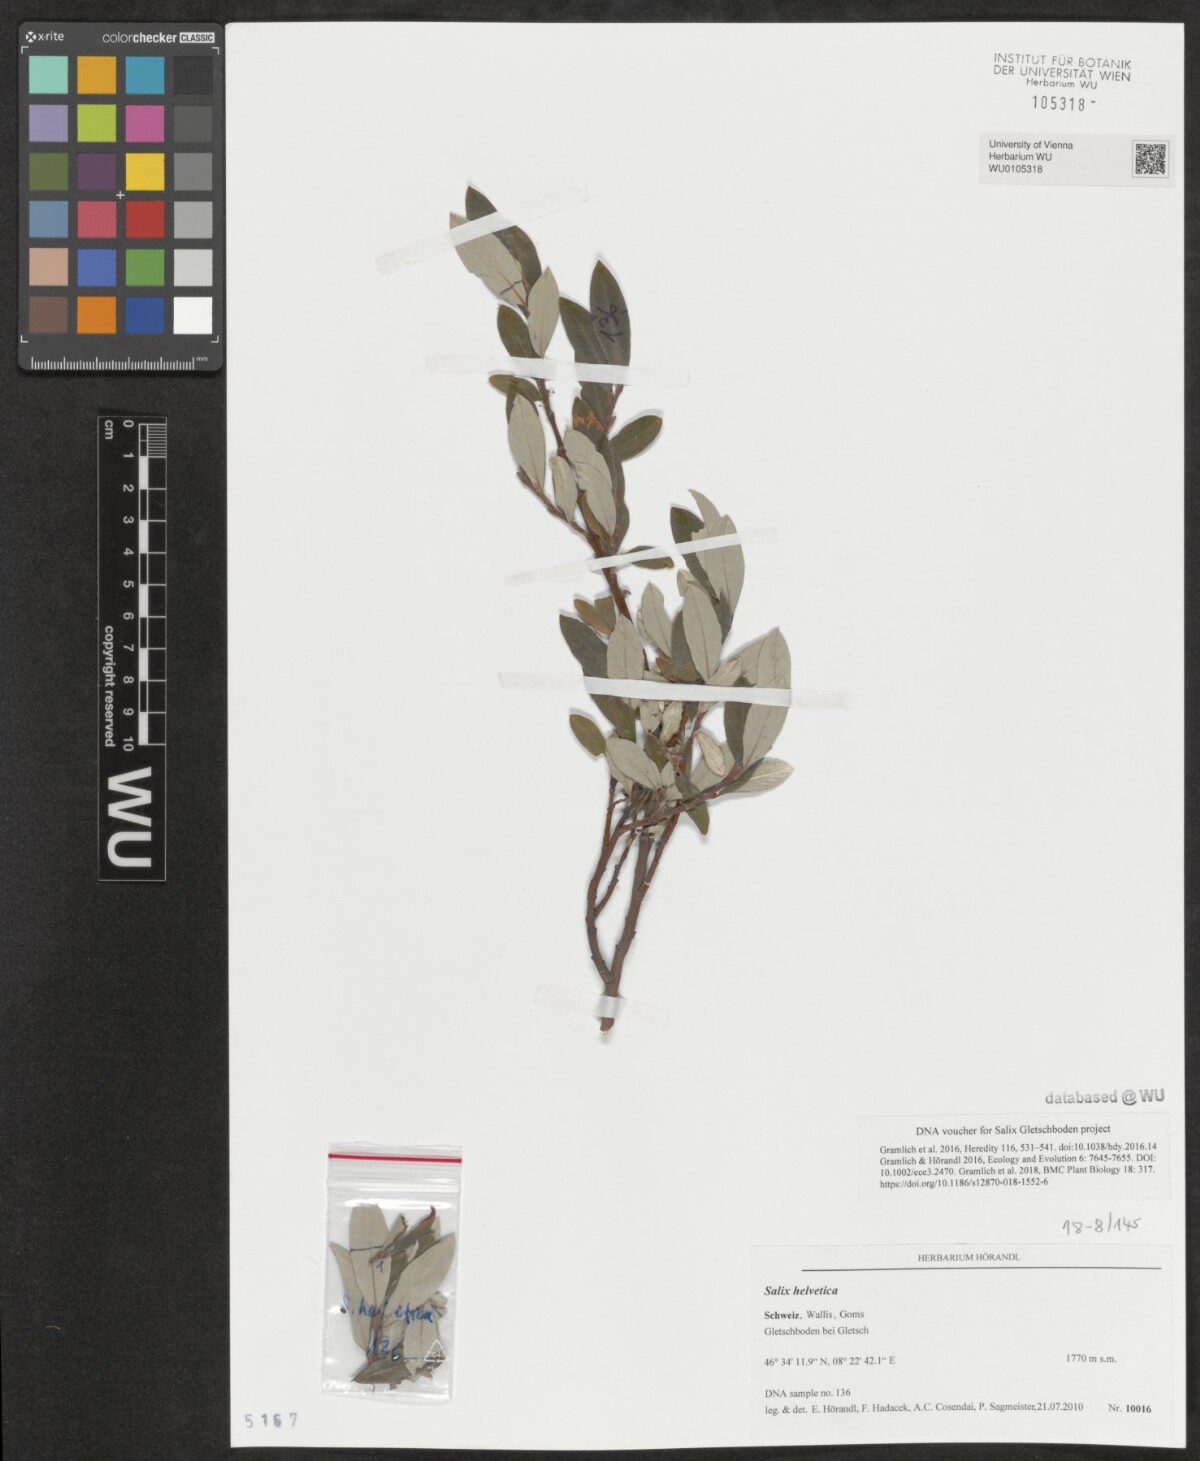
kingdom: Plantae
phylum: Tracheophyta
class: Magnoliopsida
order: Malpighiales
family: Salicaceae
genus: Salix
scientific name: Salix helvetica
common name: Swiss willow
